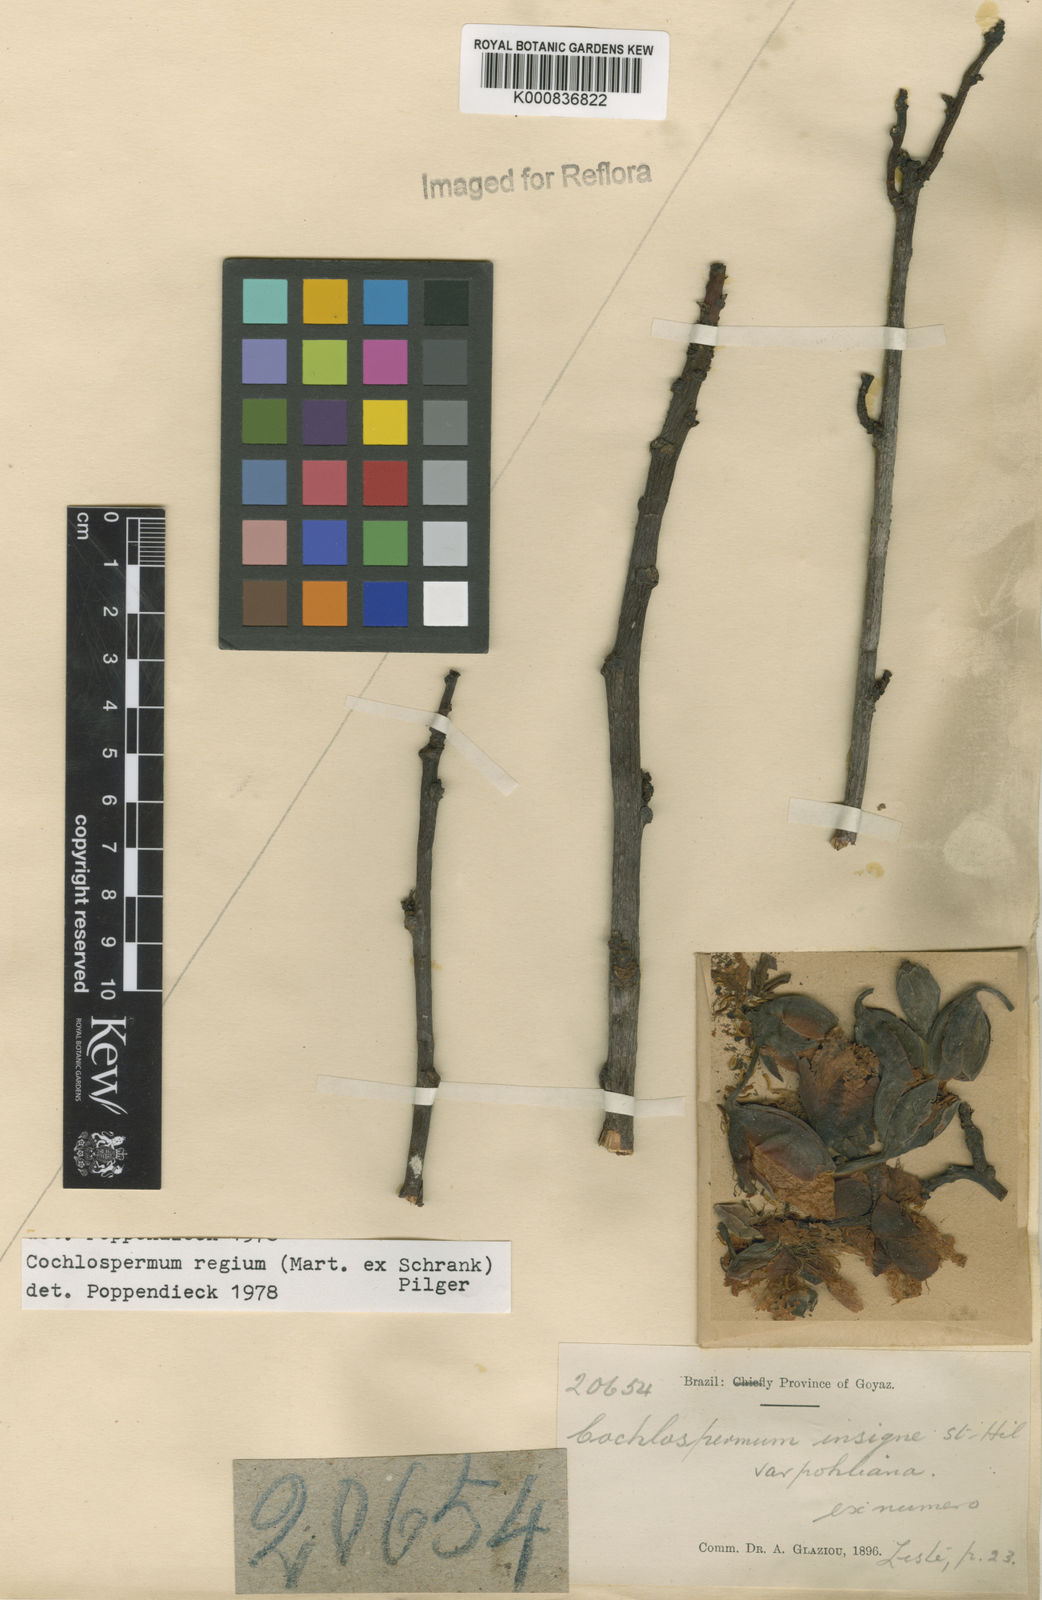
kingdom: Plantae
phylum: Tracheophyta
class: Magnoliopsida
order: Malvales
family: Cochlospermaceae
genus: Cochlospermum
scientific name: Cochlospermum regium
